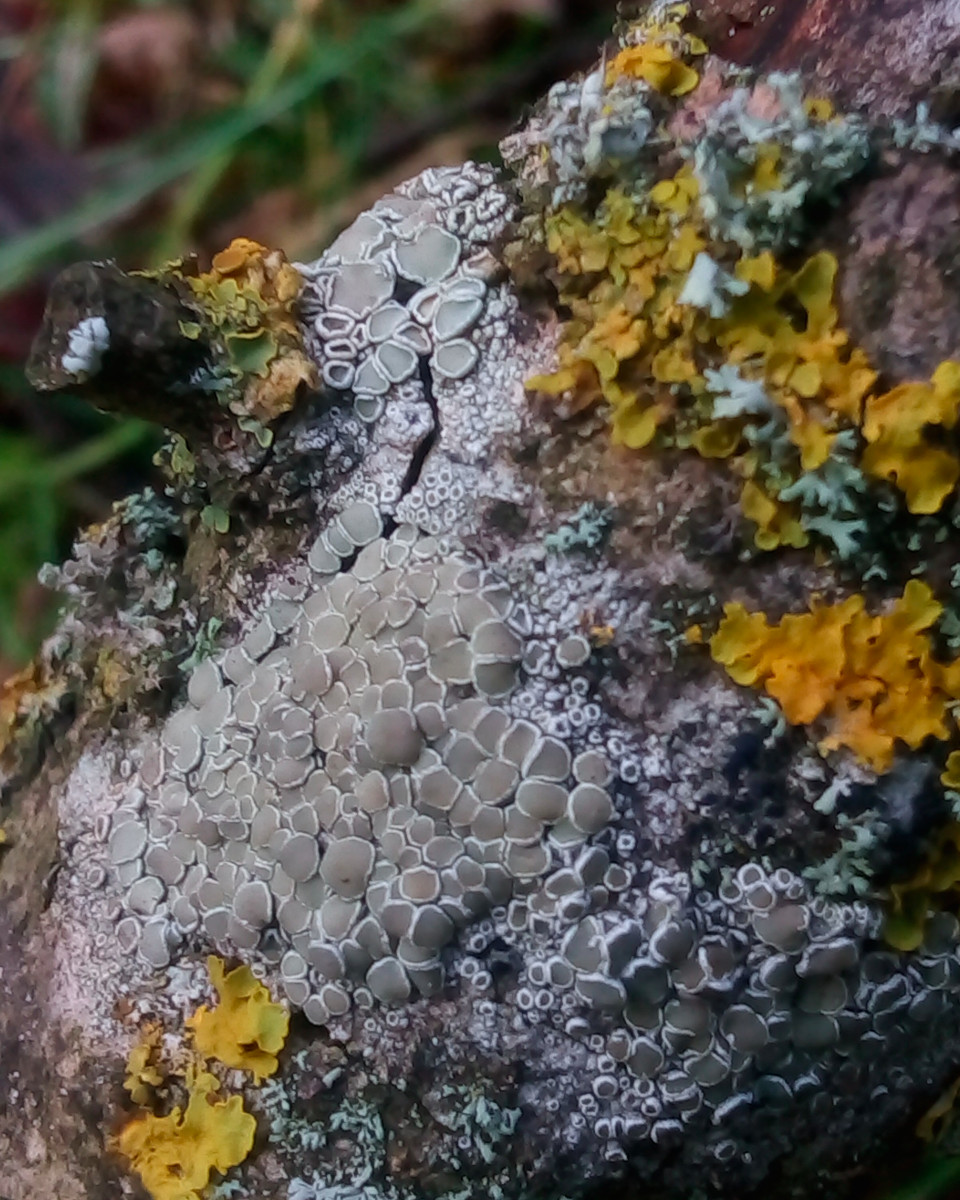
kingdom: Fungi
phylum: Ascomycota
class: Lecanoromycetes
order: Lecanorales
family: Lecanoraceae
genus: Lecanora
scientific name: Lecanora chlarotera
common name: brun kantskivelav
